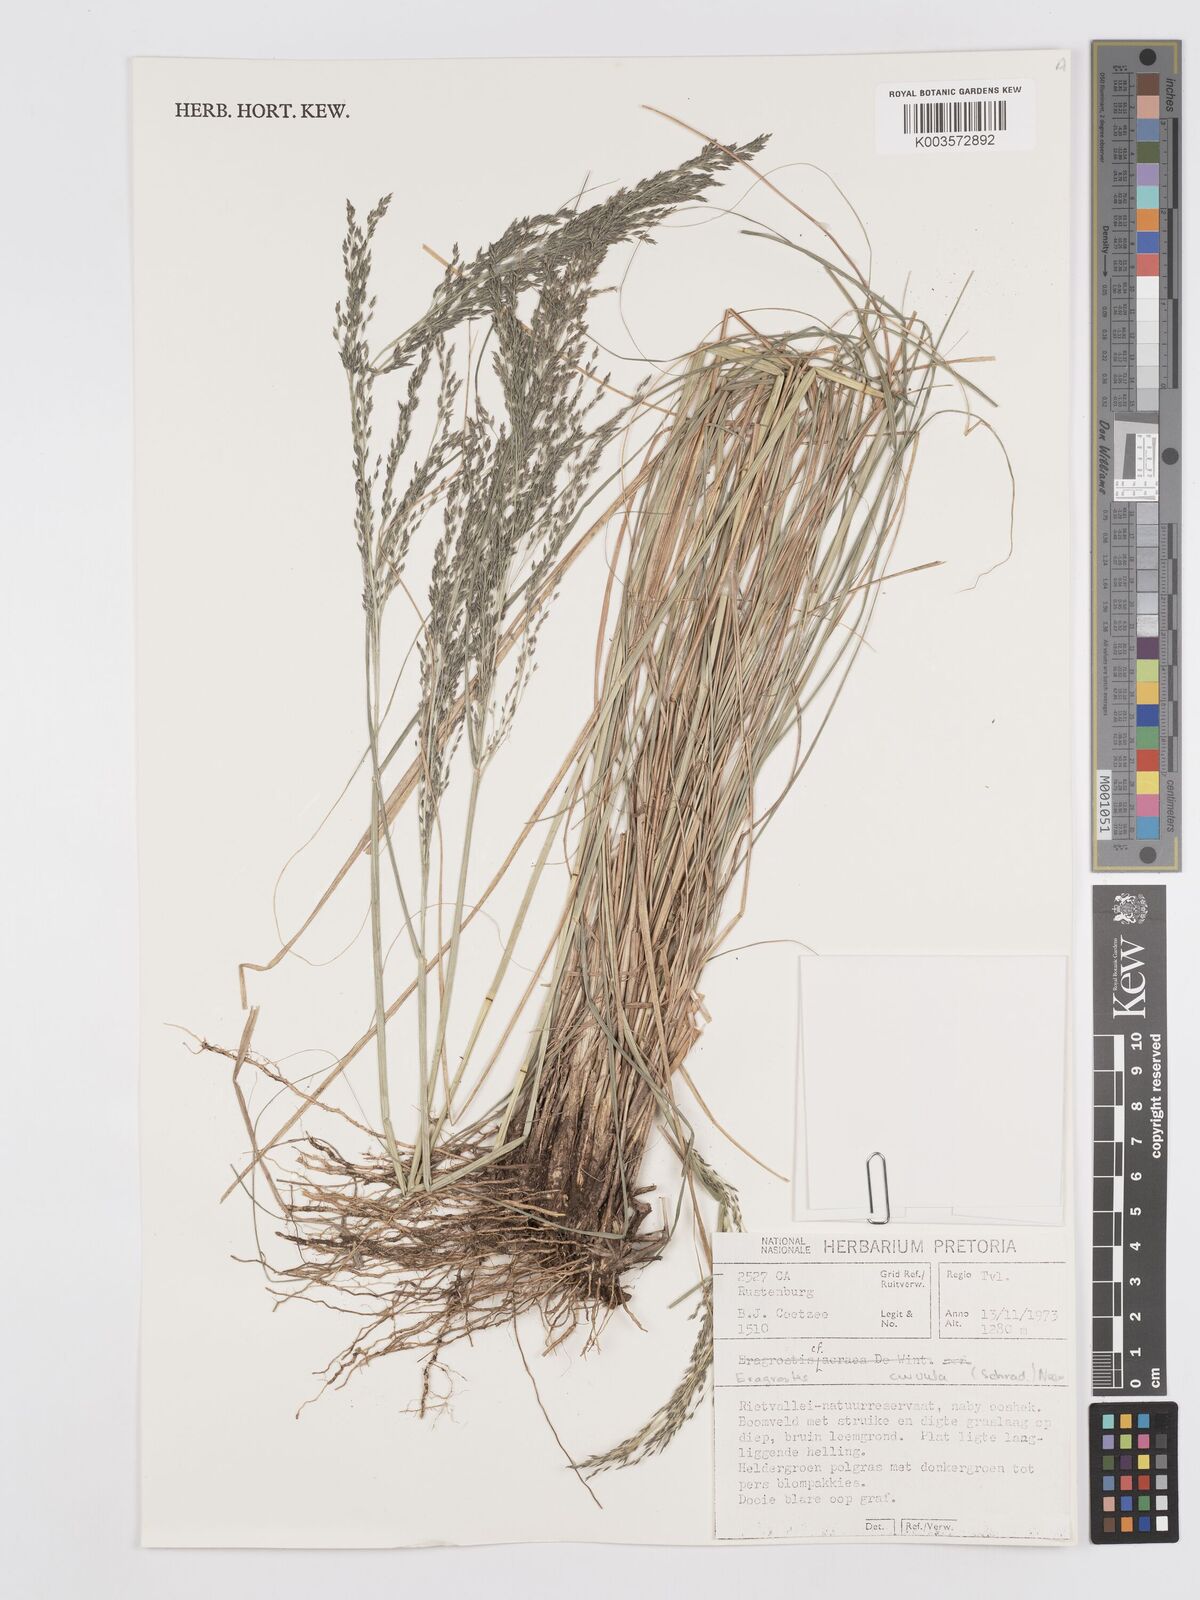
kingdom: Plantae
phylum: Tracheophyta
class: Liliopsida
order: Poales
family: Poaceae
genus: Eragrostis
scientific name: Eragrostis curvula
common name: African love-grass
